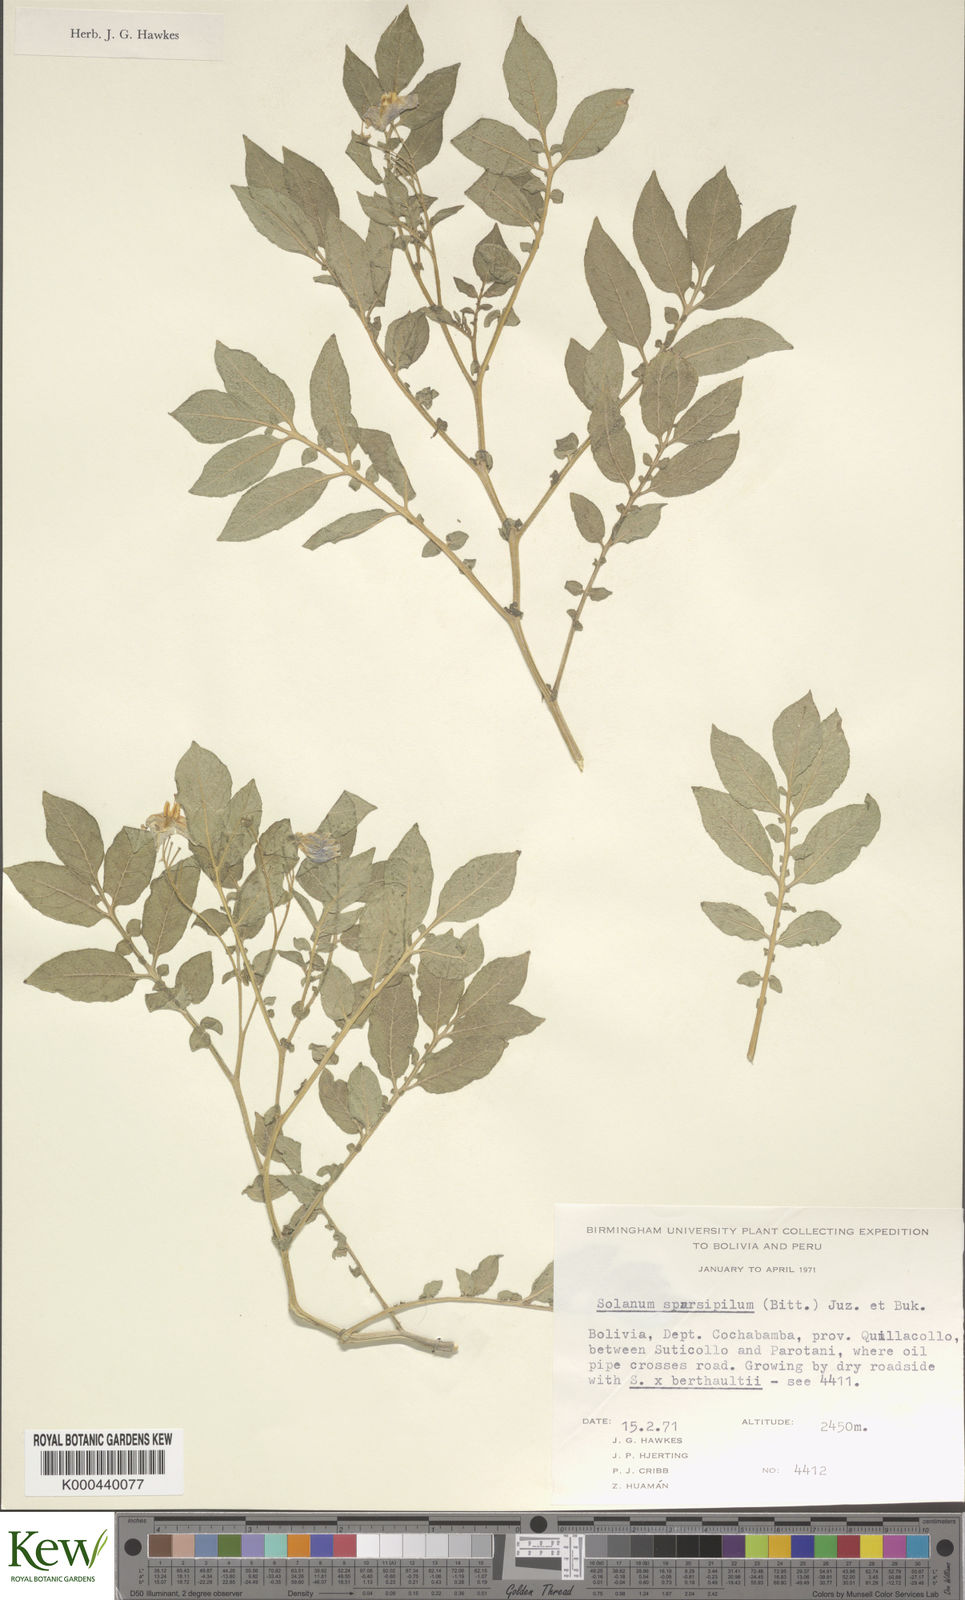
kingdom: Plantae
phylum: Tracheophyta
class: Magnoliopsida
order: Solanales
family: Solanaceae
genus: Solanum
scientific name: Solanum brevicaule
